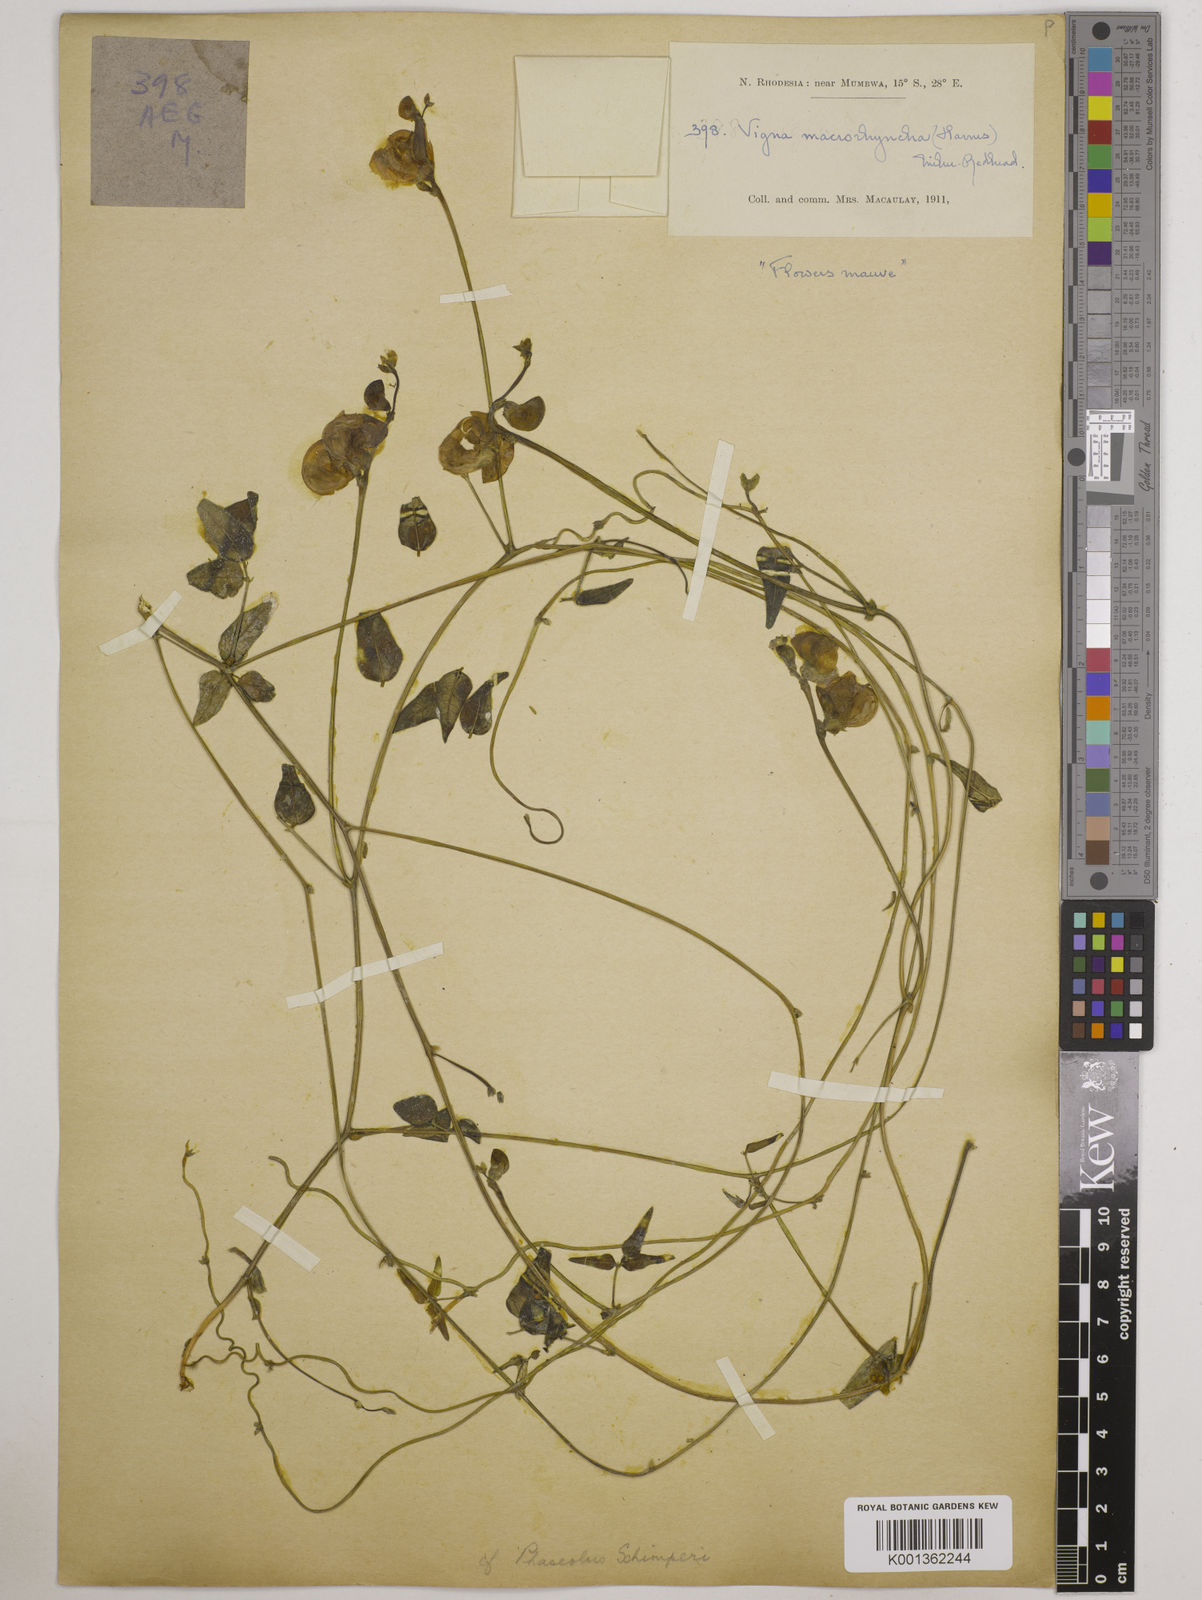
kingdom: Plantae
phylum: Tracheophyta
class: Magnoliopsida
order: Fabales
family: Fabaceae
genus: Wajira
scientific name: Wajira grahamiana
